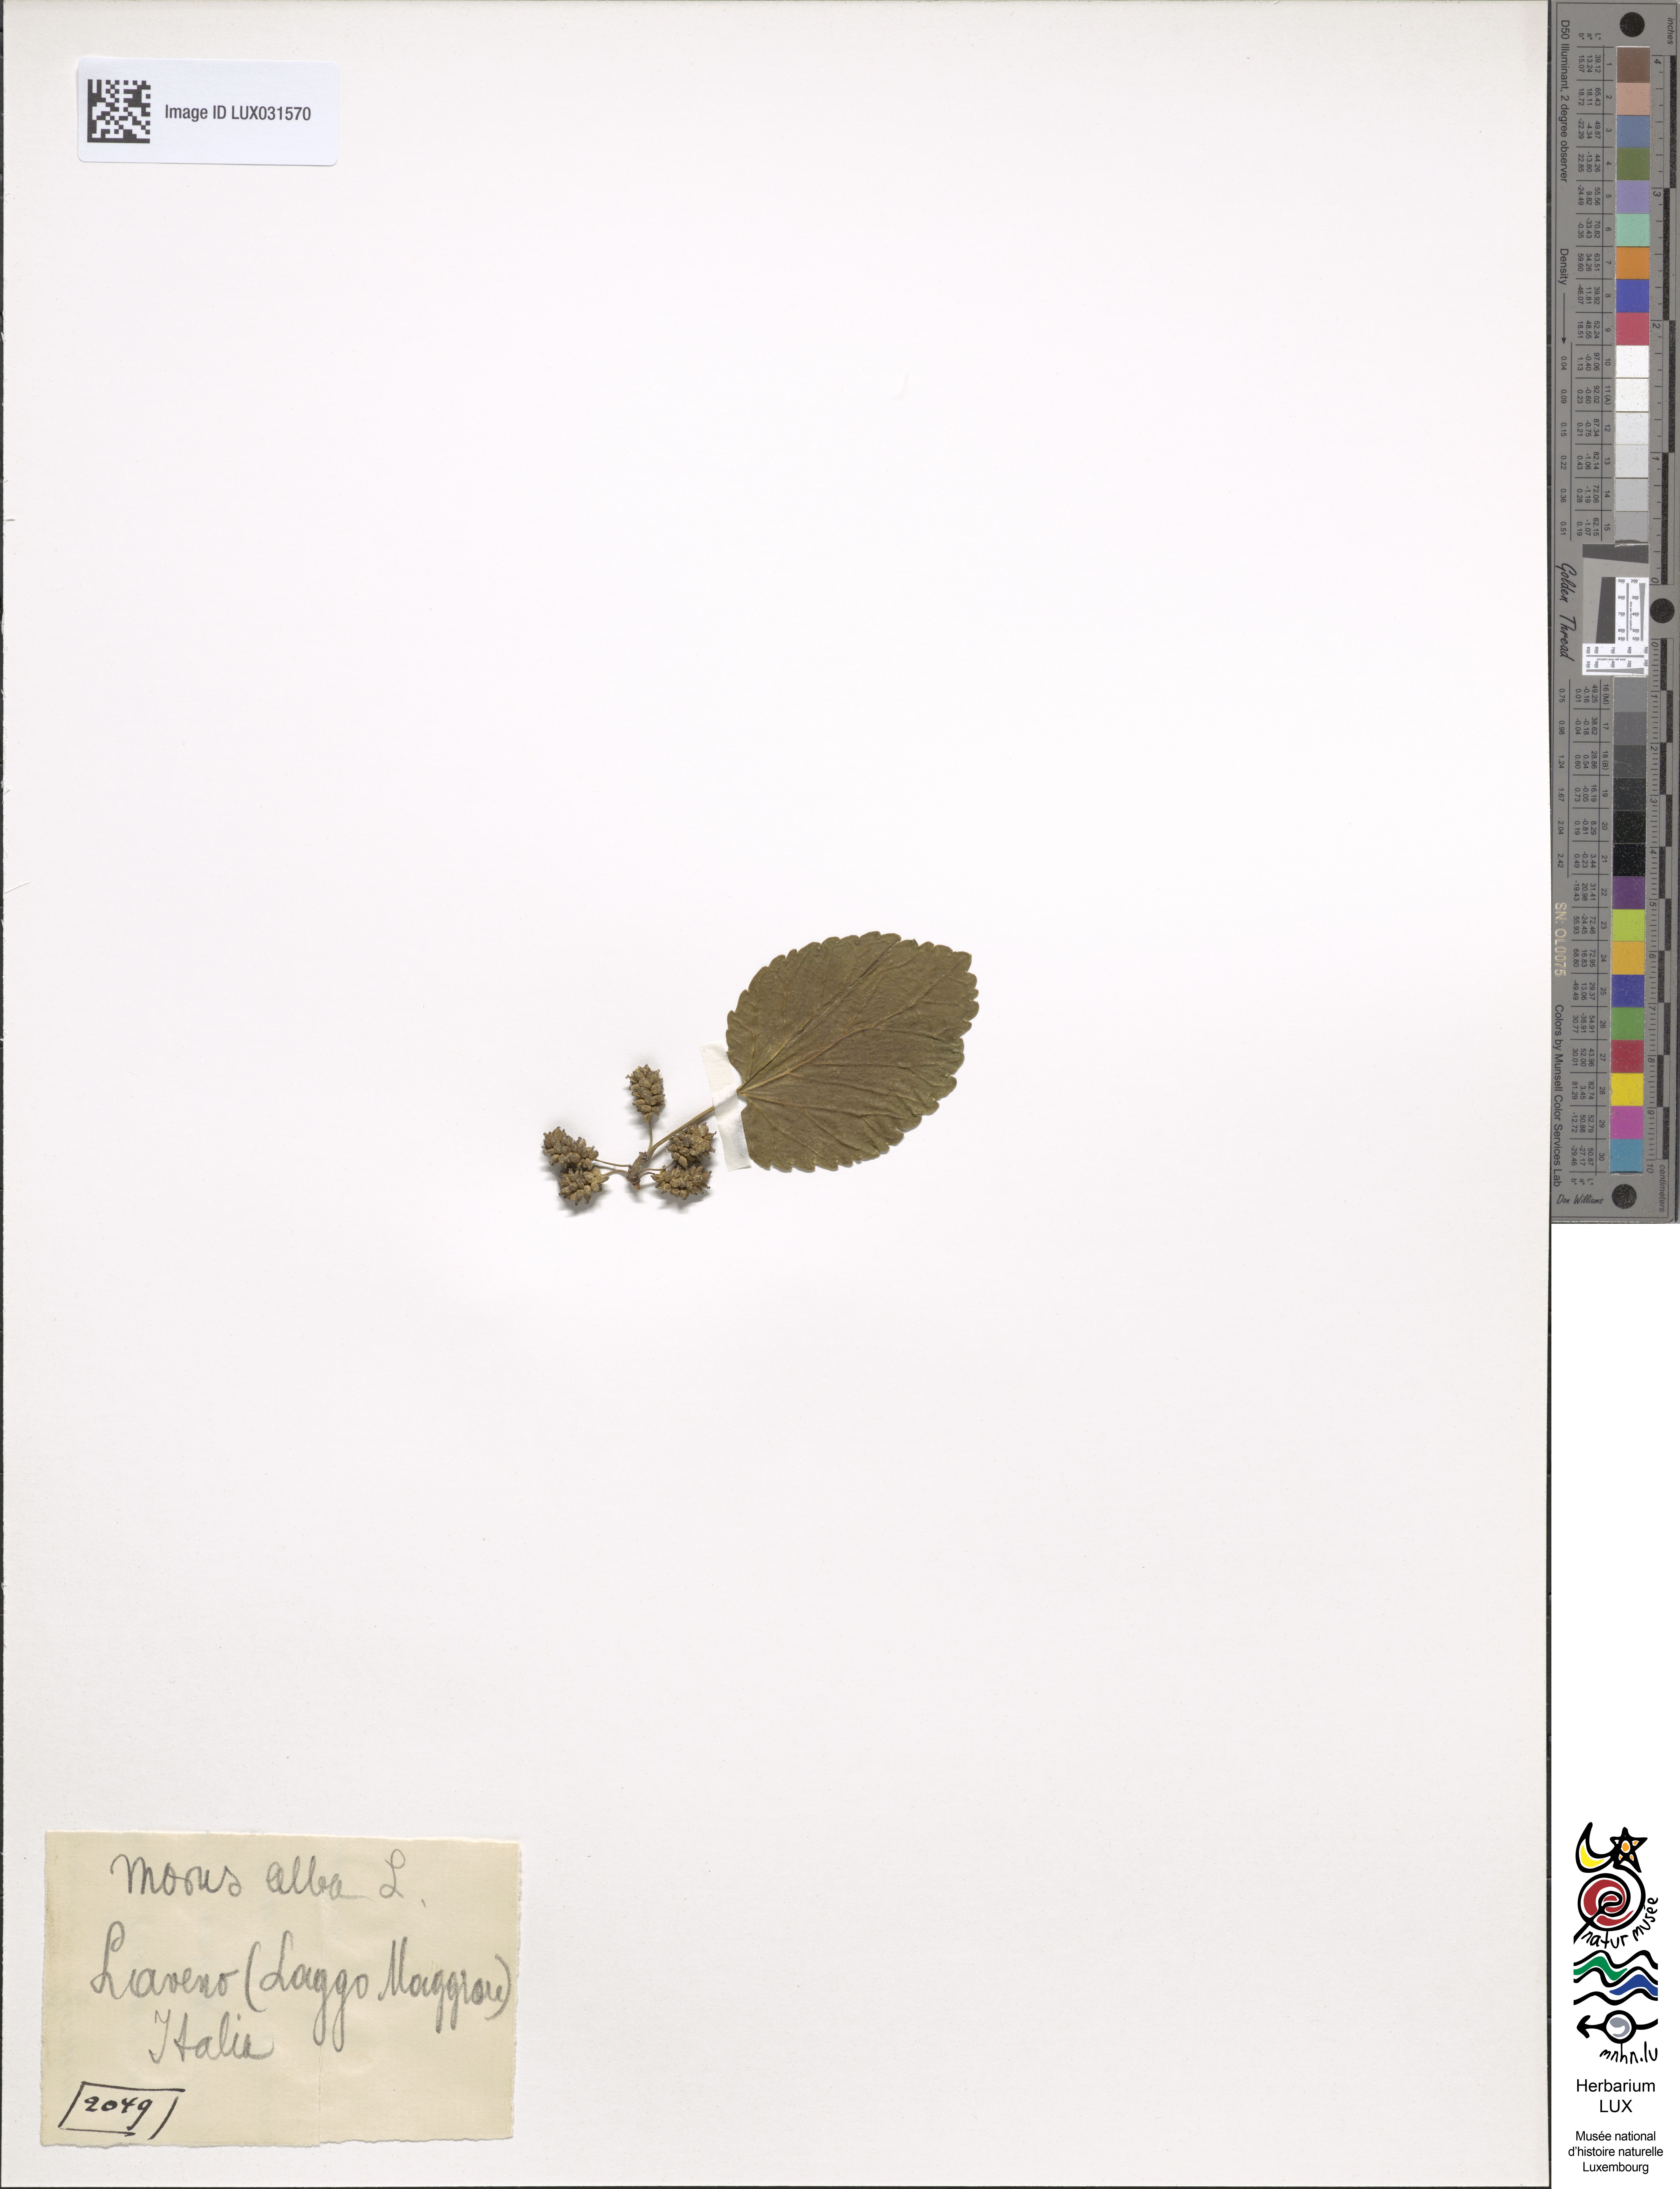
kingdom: Plantae
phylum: Tracheophyta
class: Magnoliopsida
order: Rosales
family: Moraceae
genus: Morus
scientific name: Morus alba
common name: White mulberry
